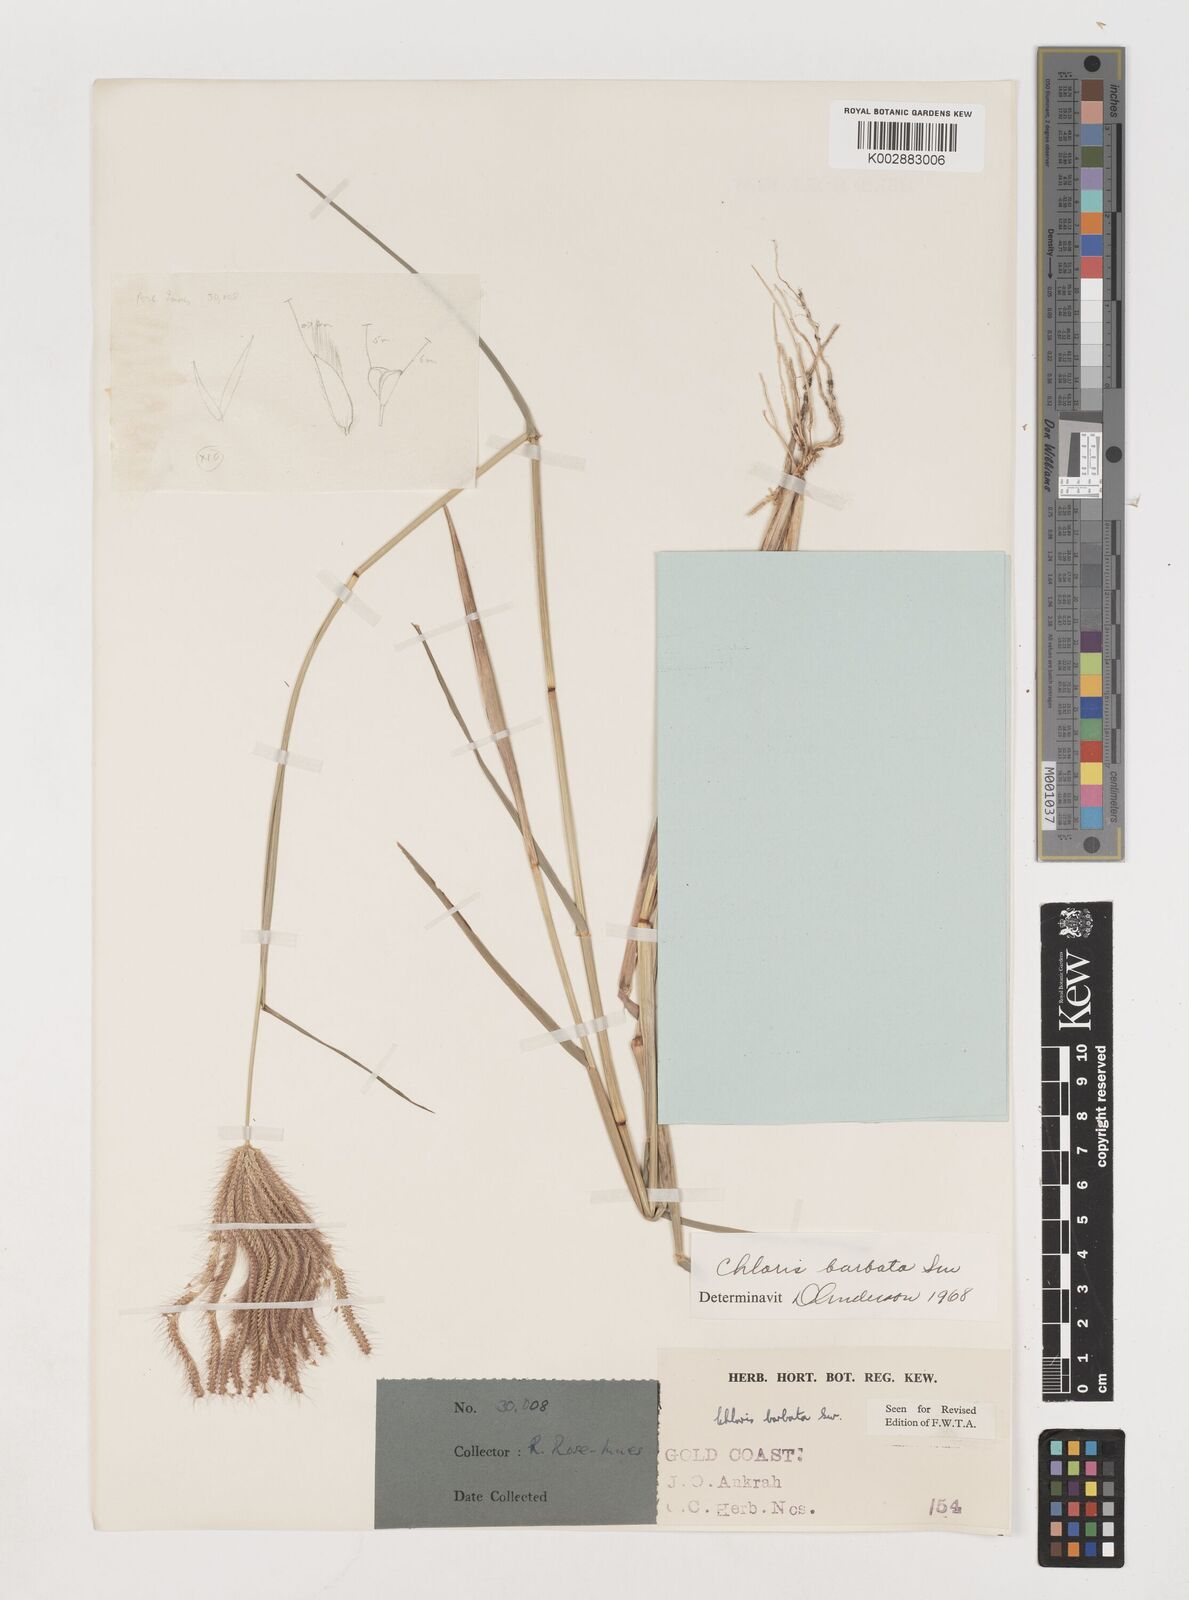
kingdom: Plantae
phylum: Tracheophyta
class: Liliopsida
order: Poales
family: Poaceae
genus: Chloris
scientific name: Chloris barbata
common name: Swollen fingergrass
